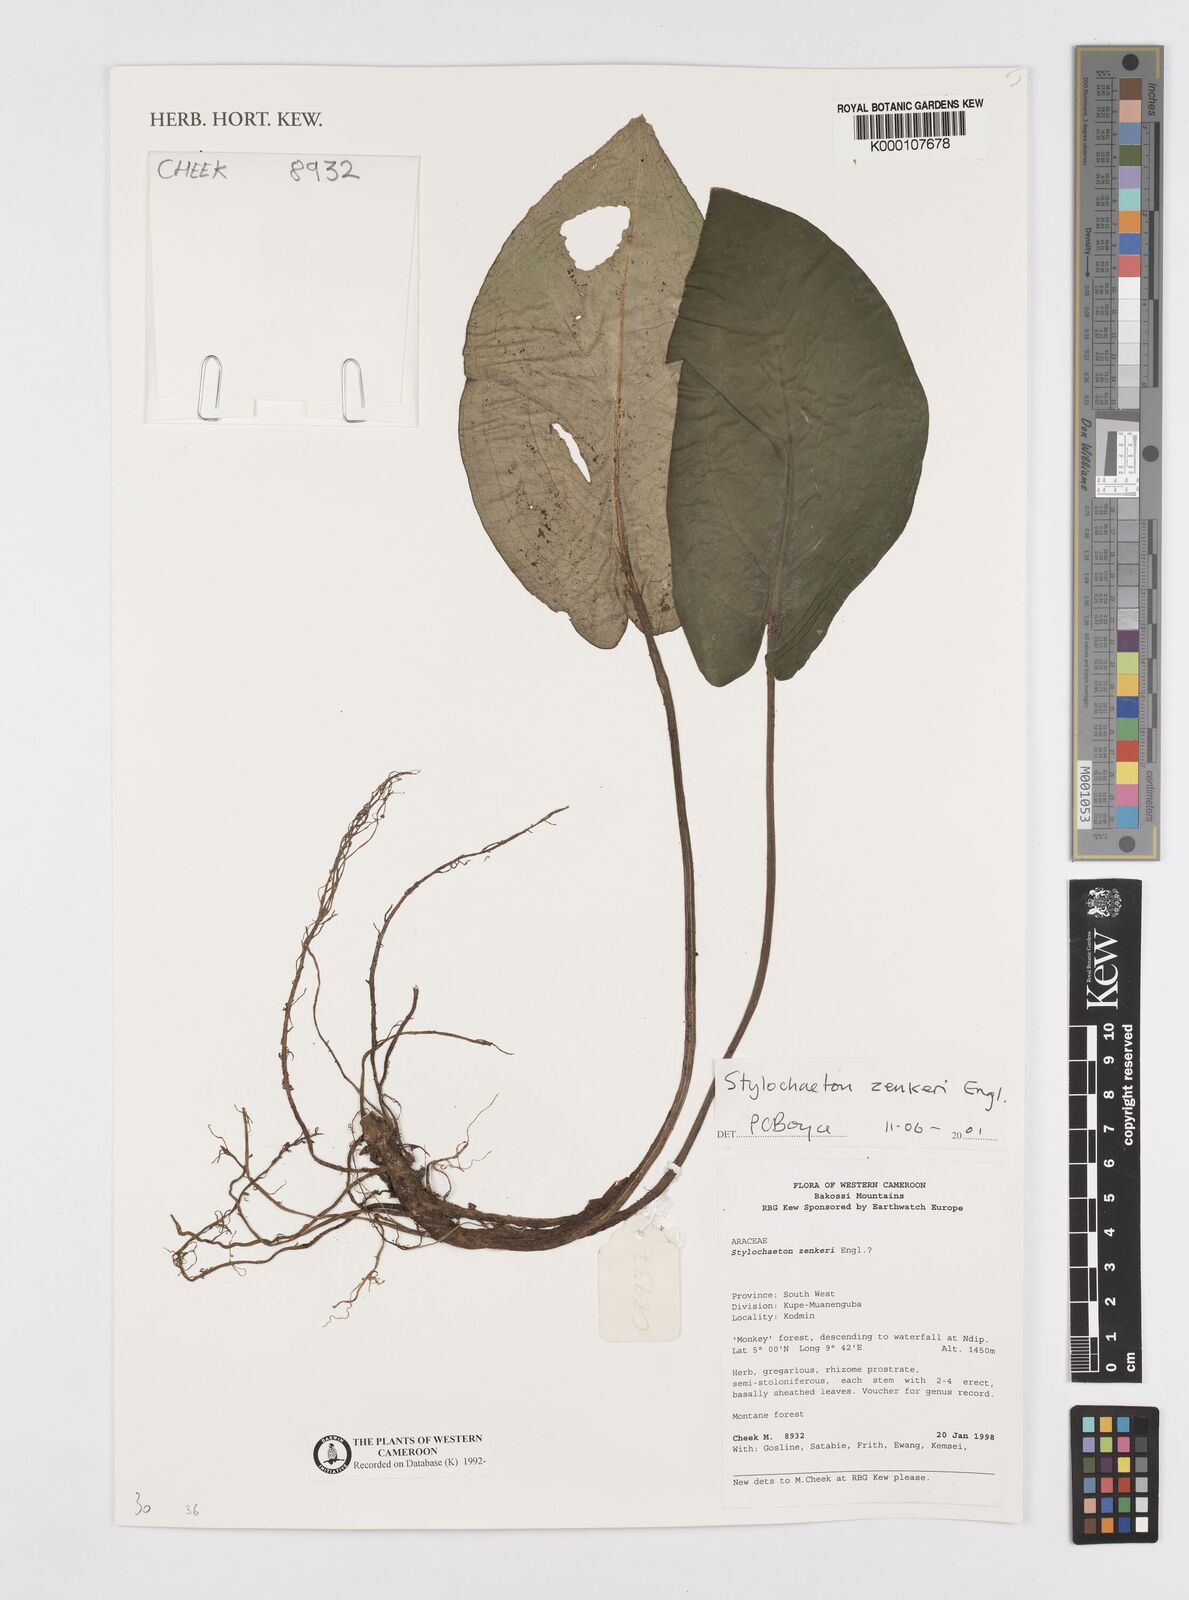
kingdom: Plantae
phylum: Tracheophyta
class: Liliopsida
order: Alismatales
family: Araceae
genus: Stylochaeton
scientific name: Stylochaeton zenkeri
